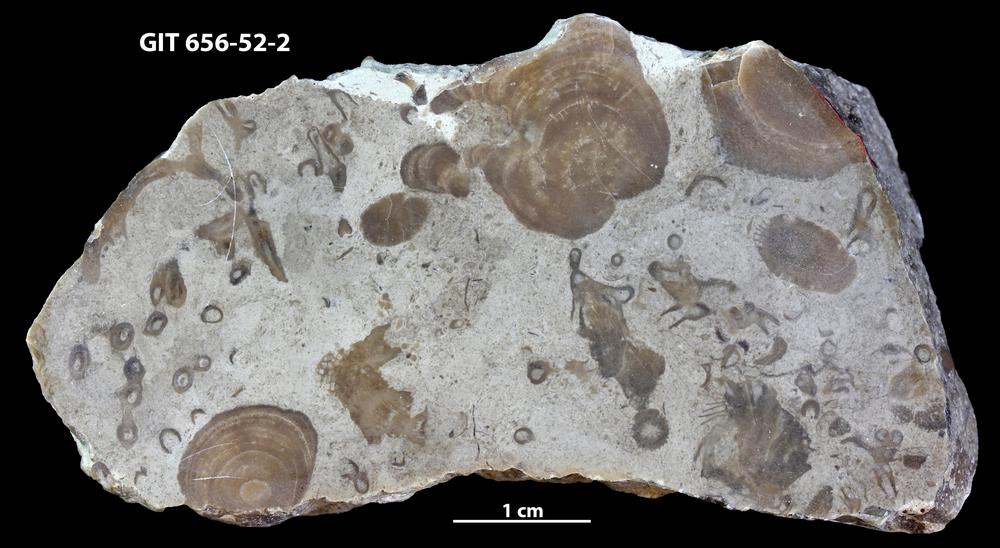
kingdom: Animalia
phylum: Cnidaria
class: Anthozoa
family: Auloporidae
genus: Aulopora
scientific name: Aulopora
